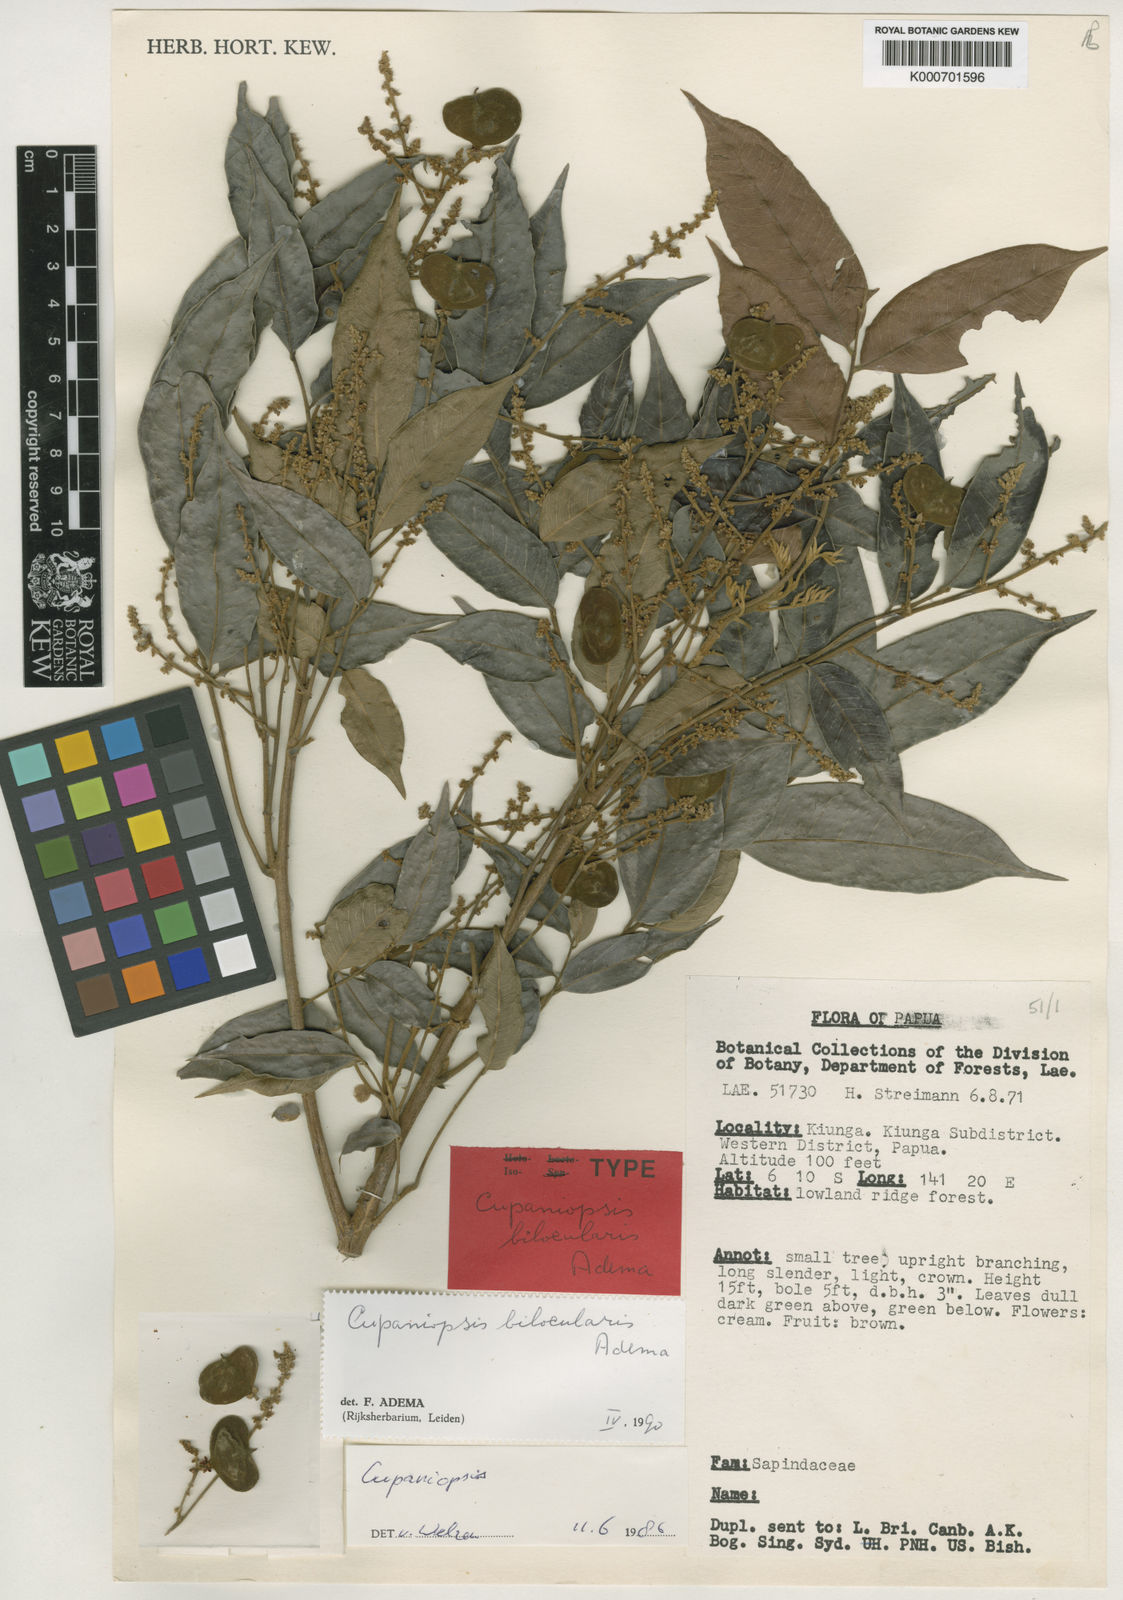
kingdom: Plantae
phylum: Tracheophyta
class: Magnoliopsida
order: Sapindales
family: Sapindaceae
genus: Cupaniopsis
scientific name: Cupaniopsis bilocularis
